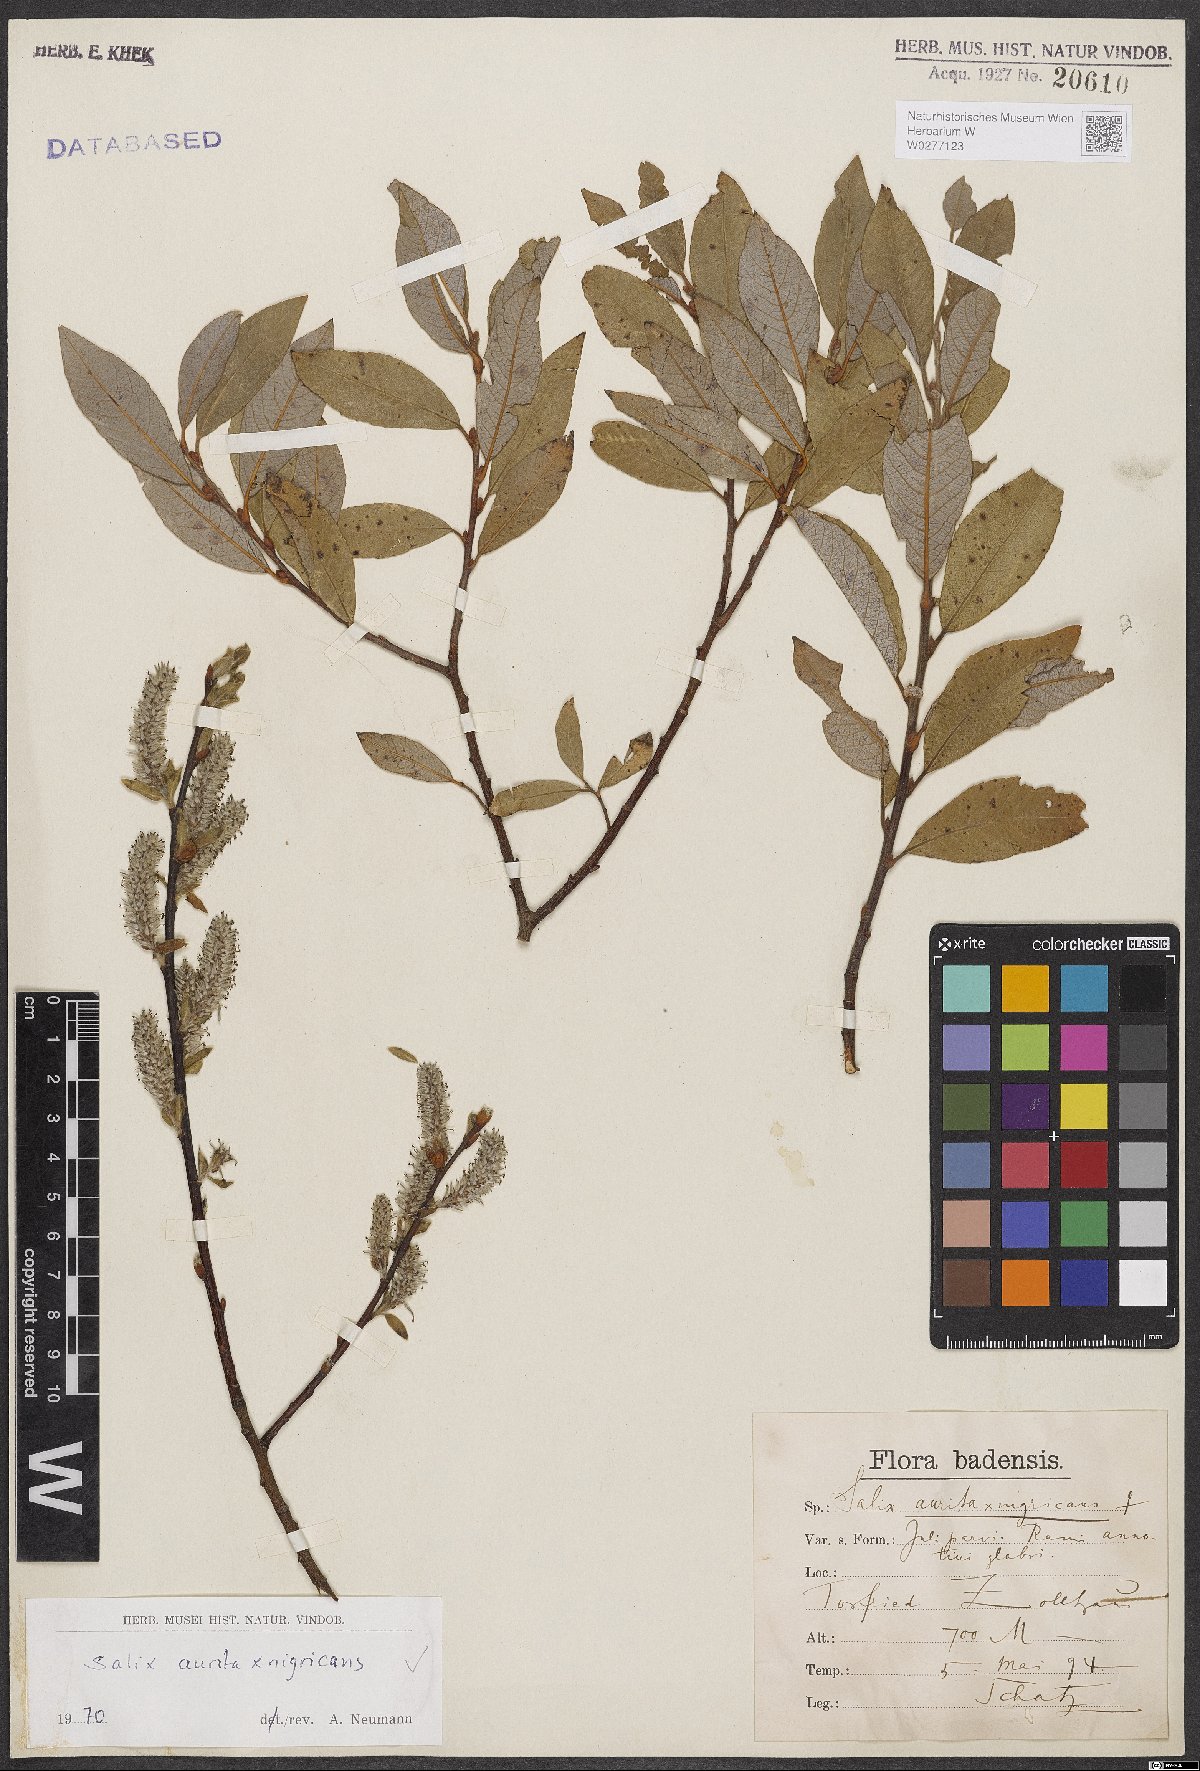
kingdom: Plantae
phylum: Tracheophyta
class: Magnoliopsida
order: Malpighiales
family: Salicaceae
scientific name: Salicaceae
